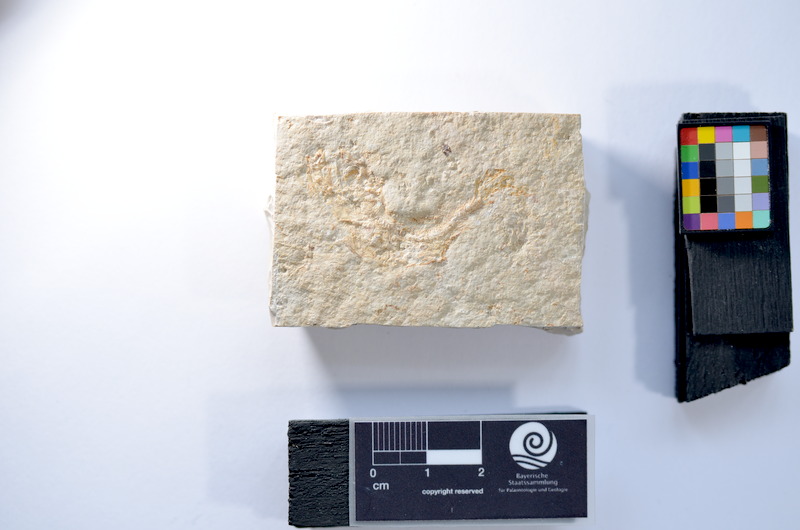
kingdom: Animalia
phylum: Chordata
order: Salmoniformes
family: Orthogonikleithridae
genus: Leptolepides
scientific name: Leptolepides
